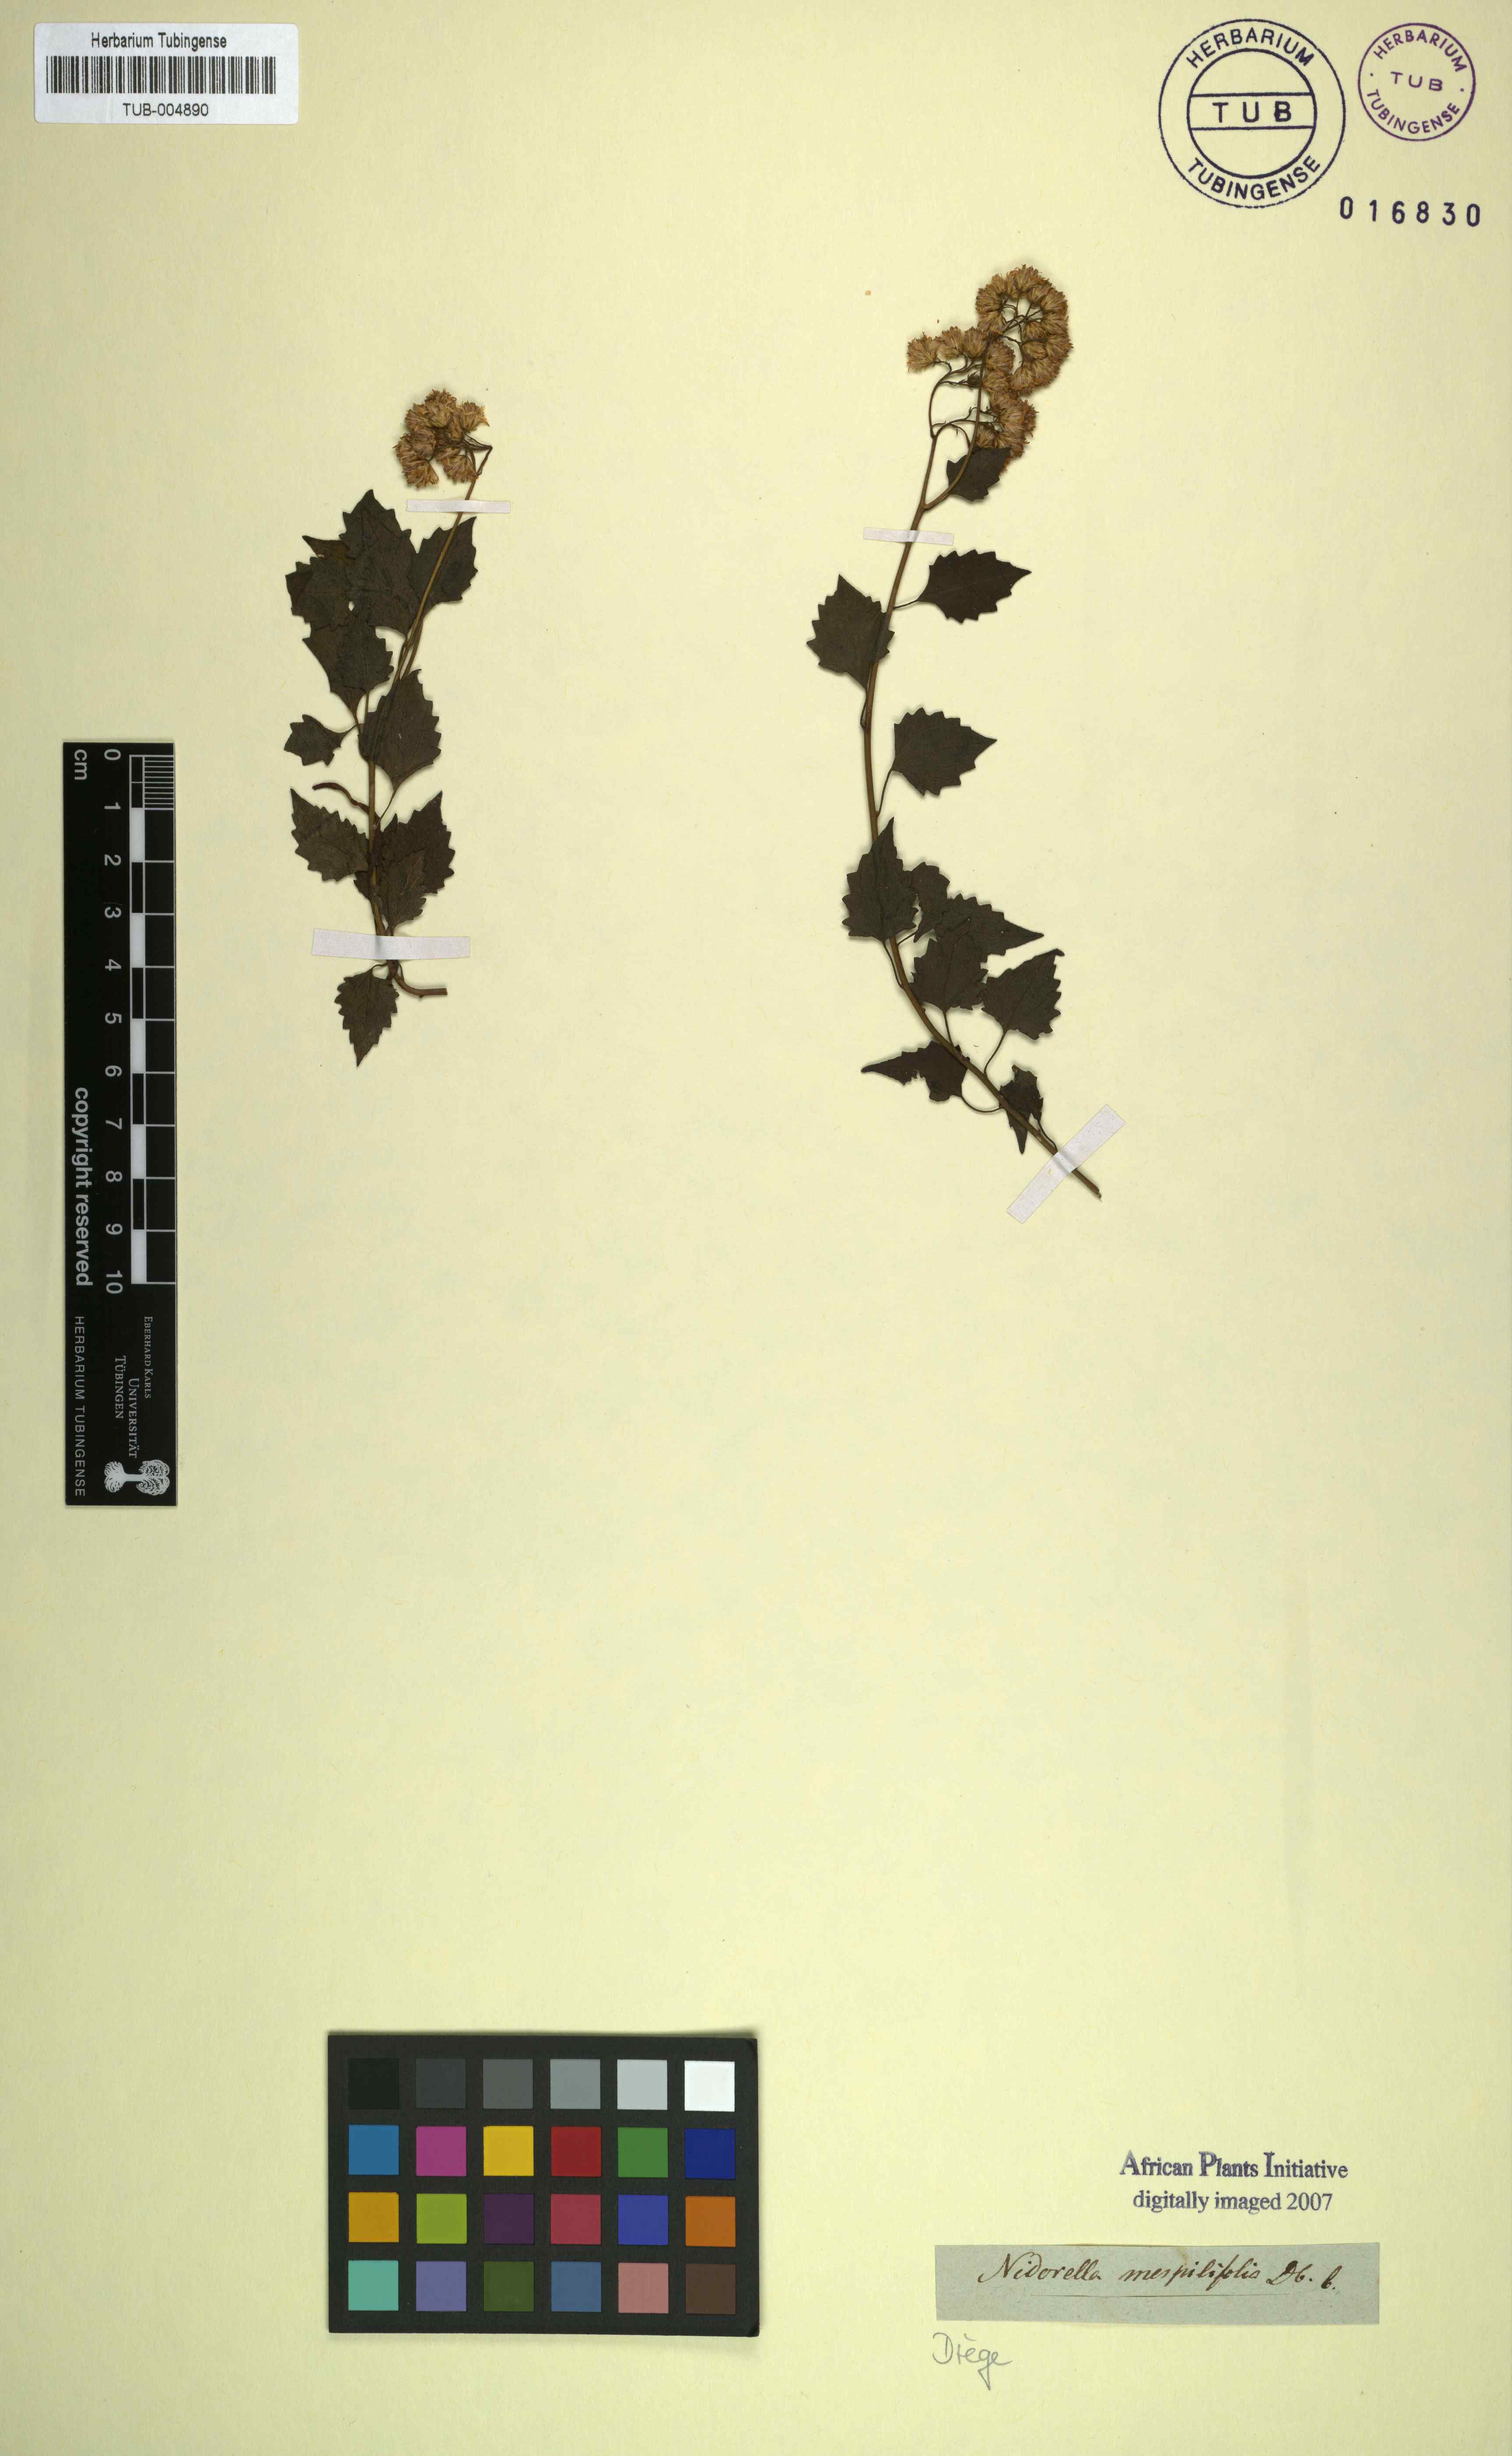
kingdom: Plantae
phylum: Tracheophyta
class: Magnoliopsida
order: Asterales
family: Asteraceae
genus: Microglossa
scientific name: Microglossa mespilifolia
